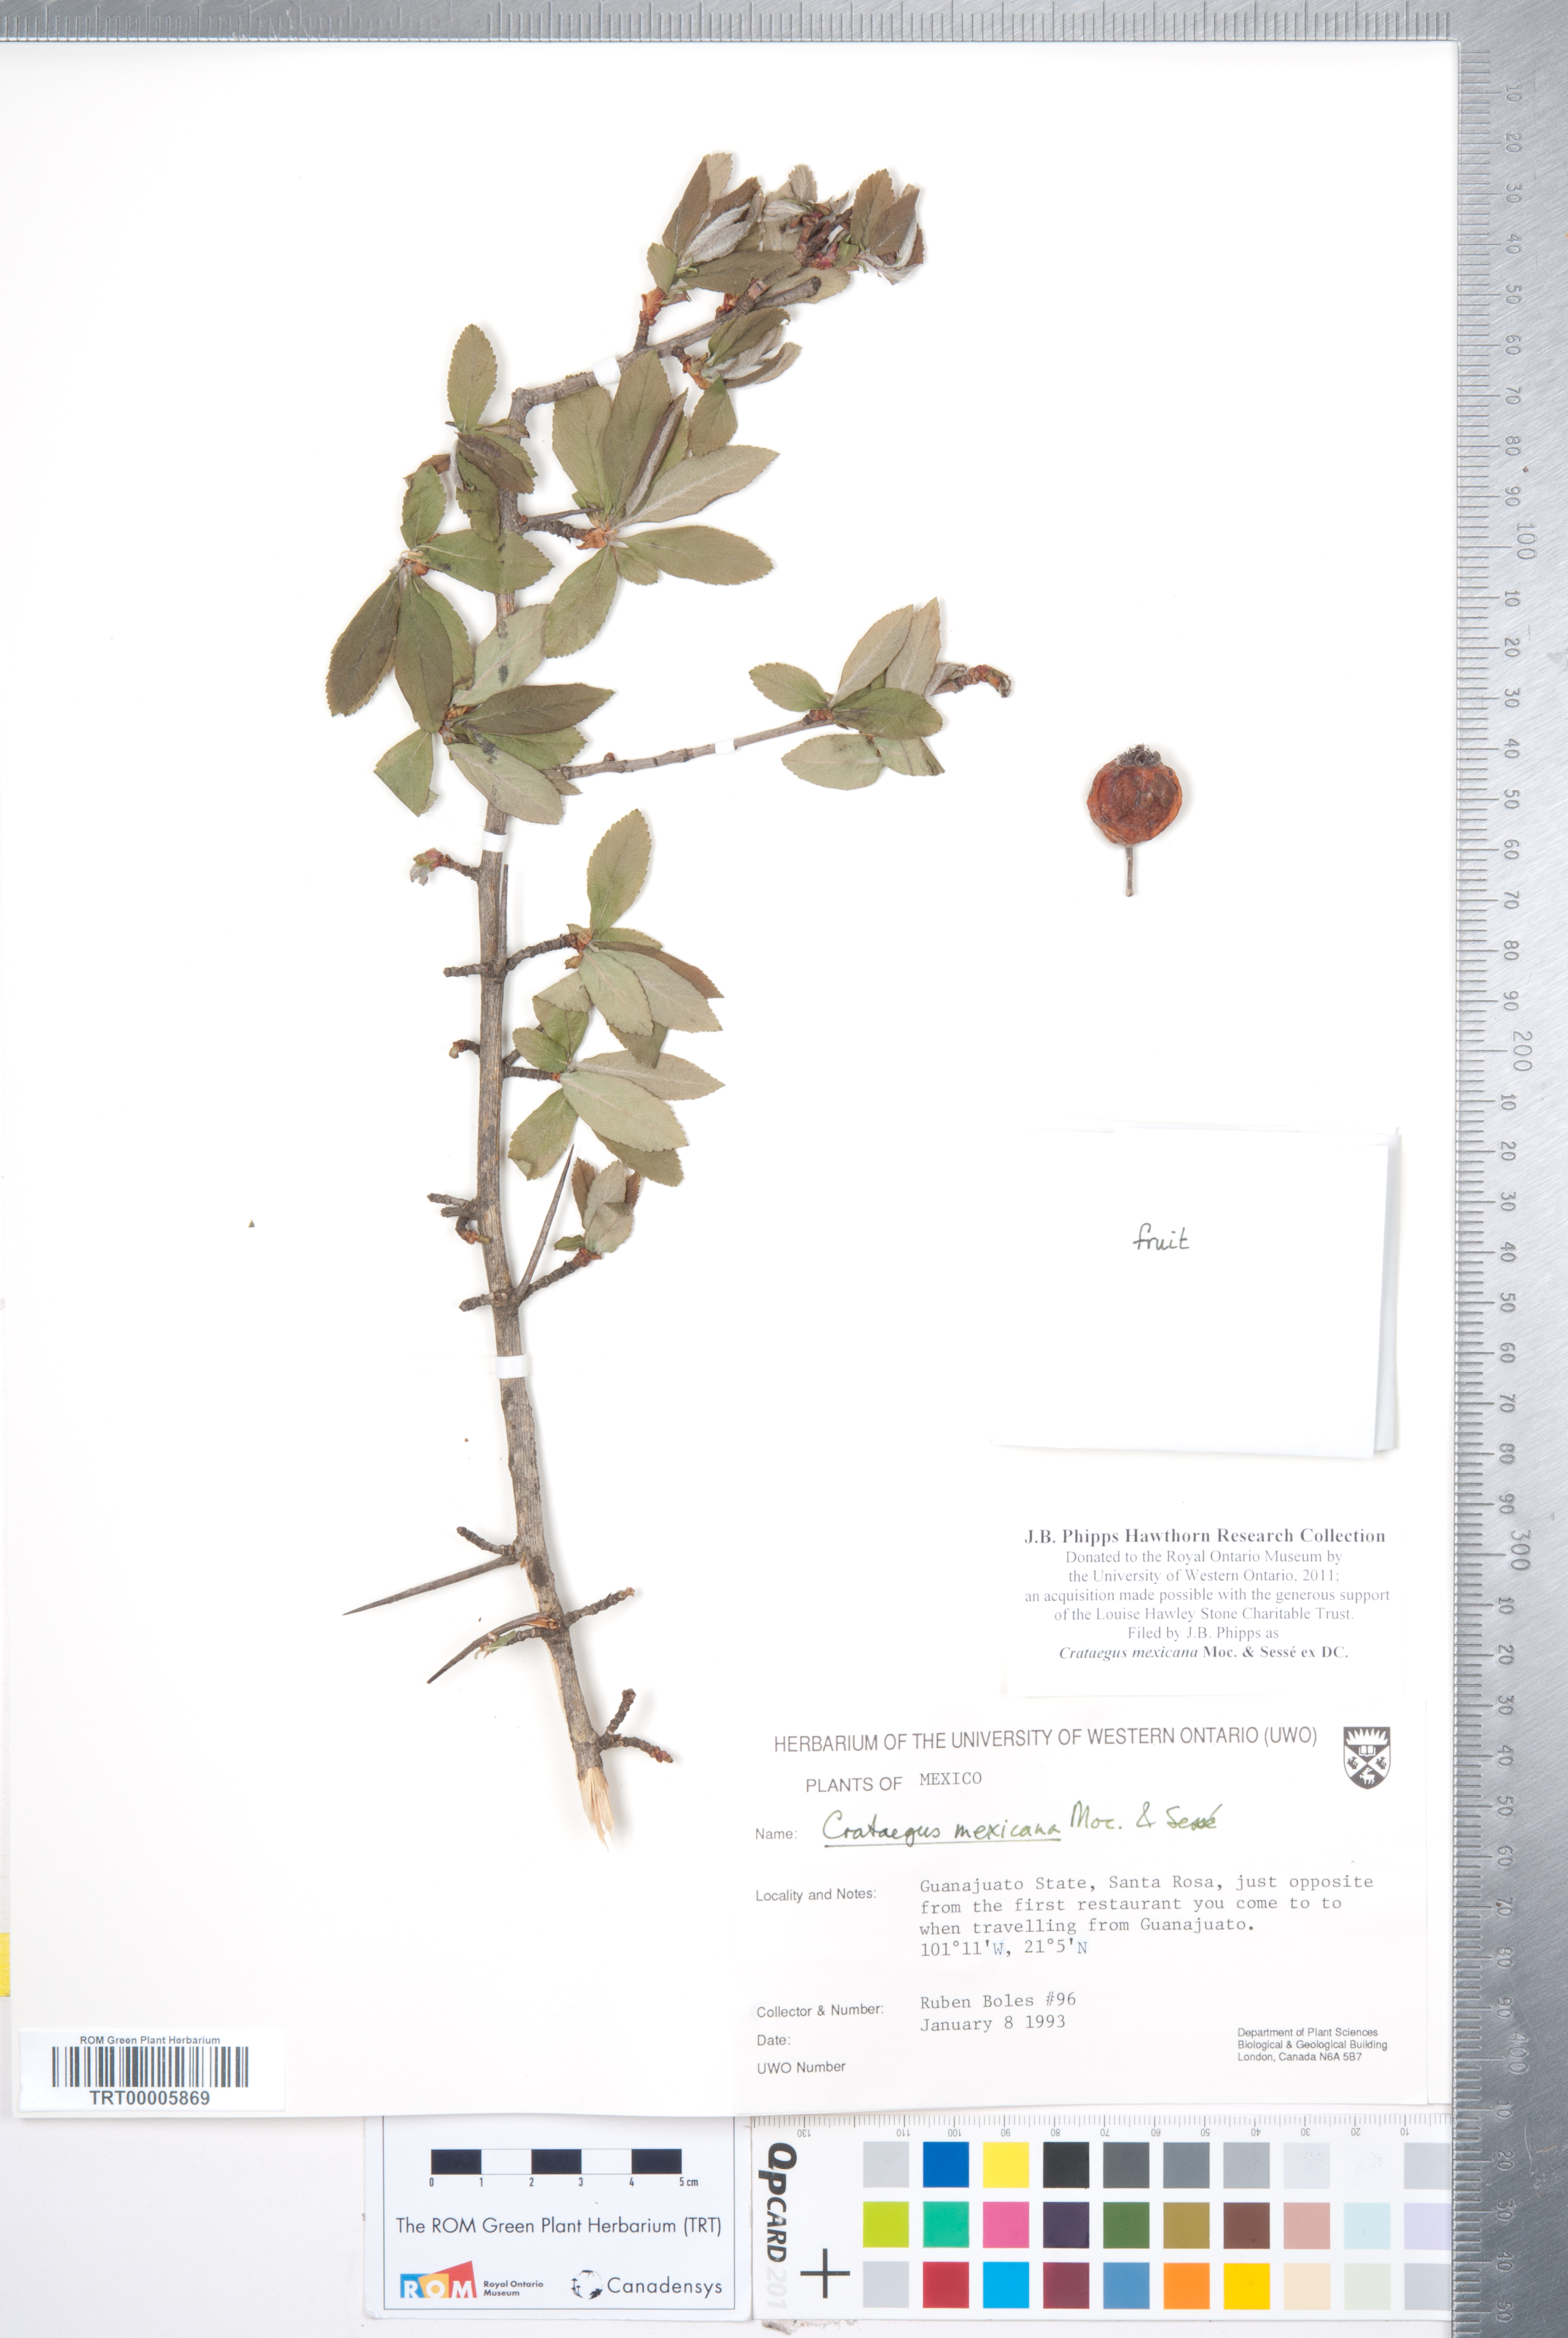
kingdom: Plantae
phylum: Tracheophyta
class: Magnoliopsida
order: Rosales
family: Rosaceae
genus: Crataegus
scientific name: Crataegus mexicana
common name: Mexican hawthorn
